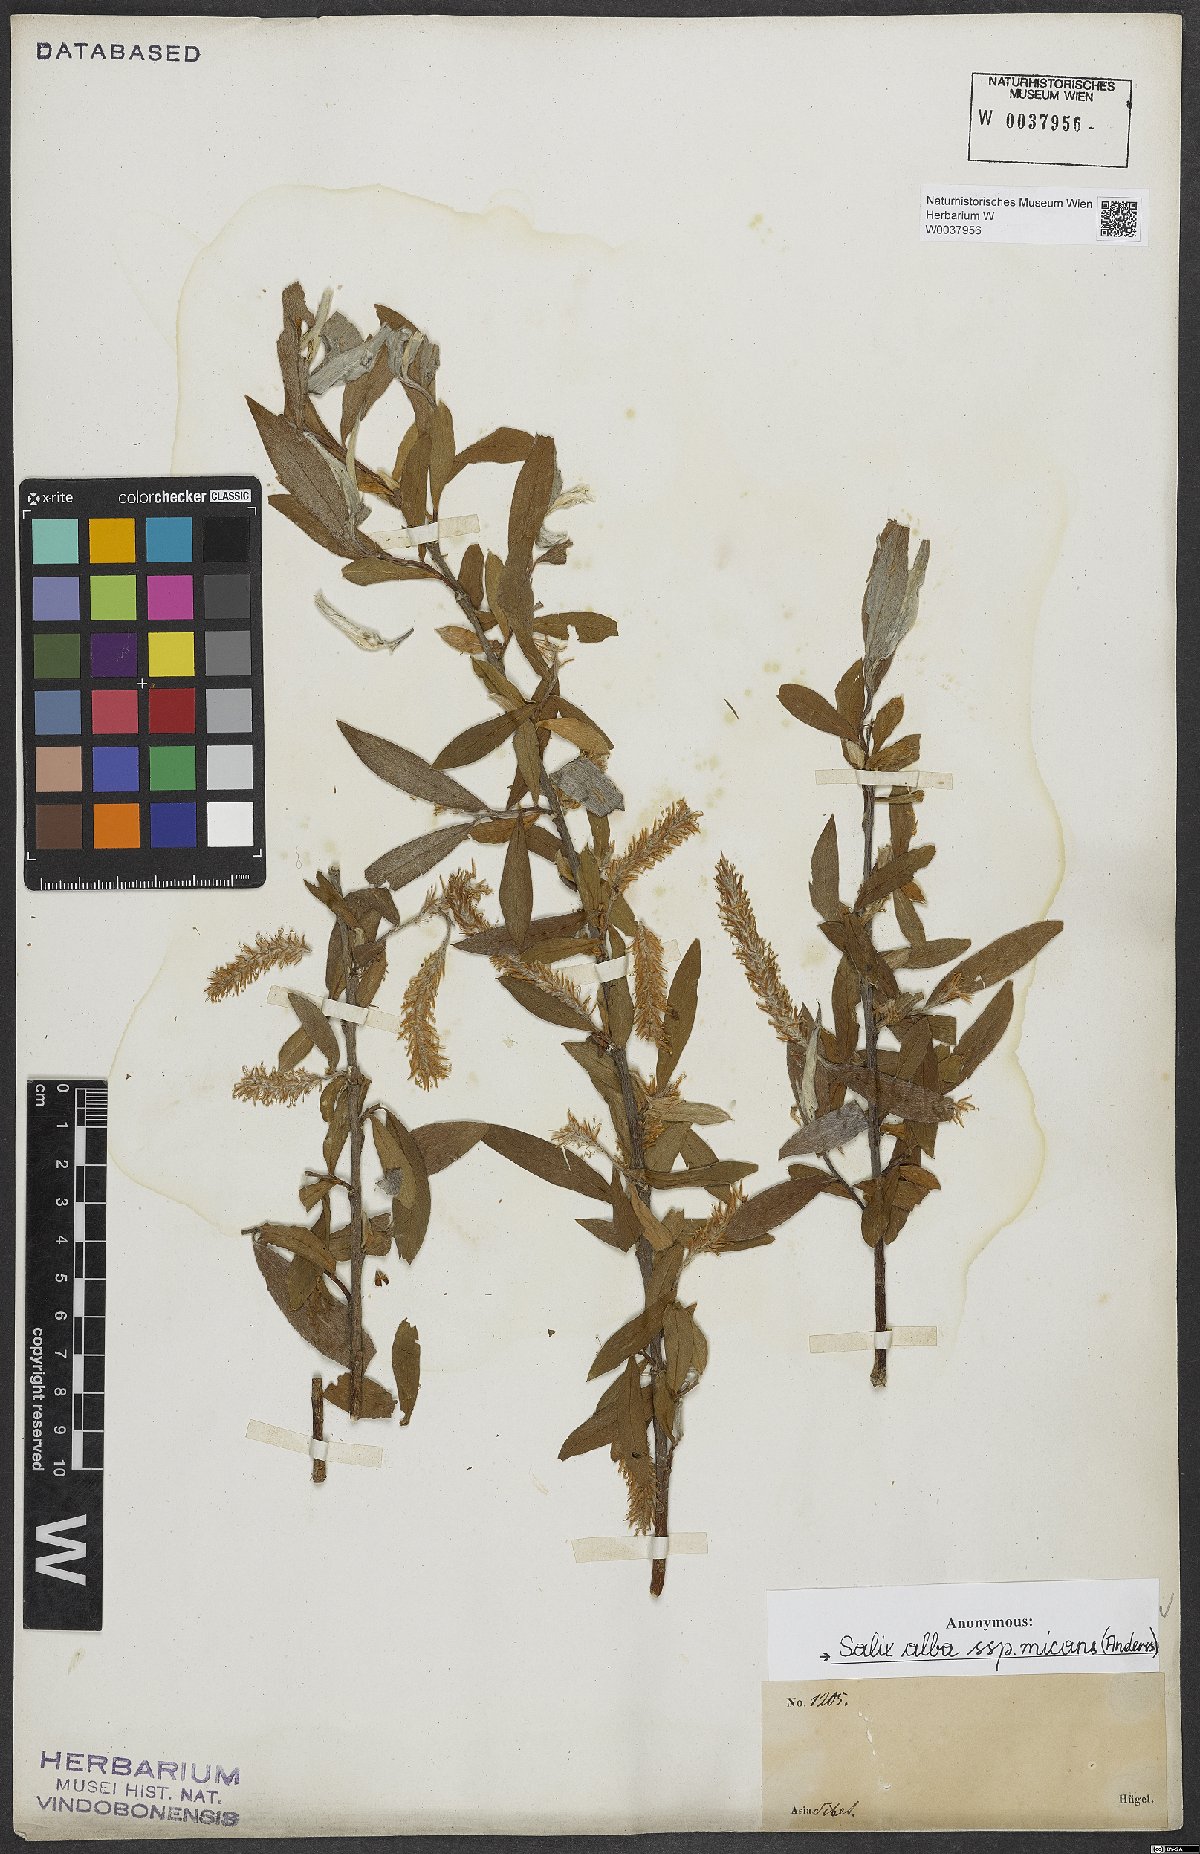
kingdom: Plantae
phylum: Tracheophyta
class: Magnoliopsida
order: Malpighiales
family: Salicaceae
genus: Salix
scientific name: Salix alba
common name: White willow
